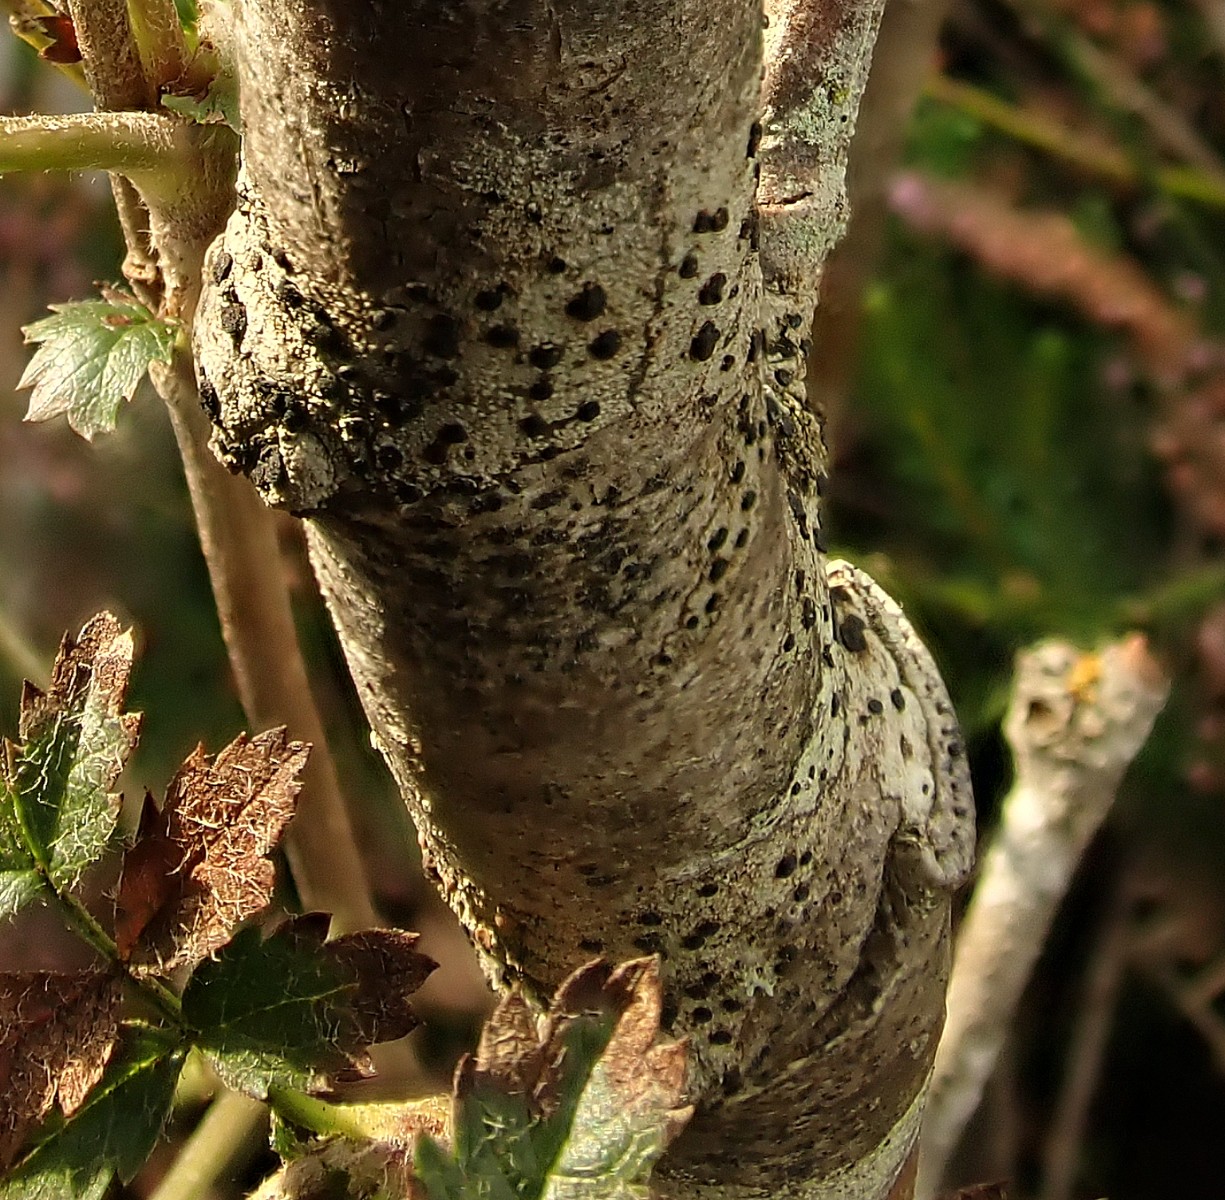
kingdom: Fungi
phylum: Ascomycota
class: Lecanoromycetes
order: Lecanorales
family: Lecanoraceae
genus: Lecidella
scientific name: Lecidella elaeochroma
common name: grågrøn skivelav
